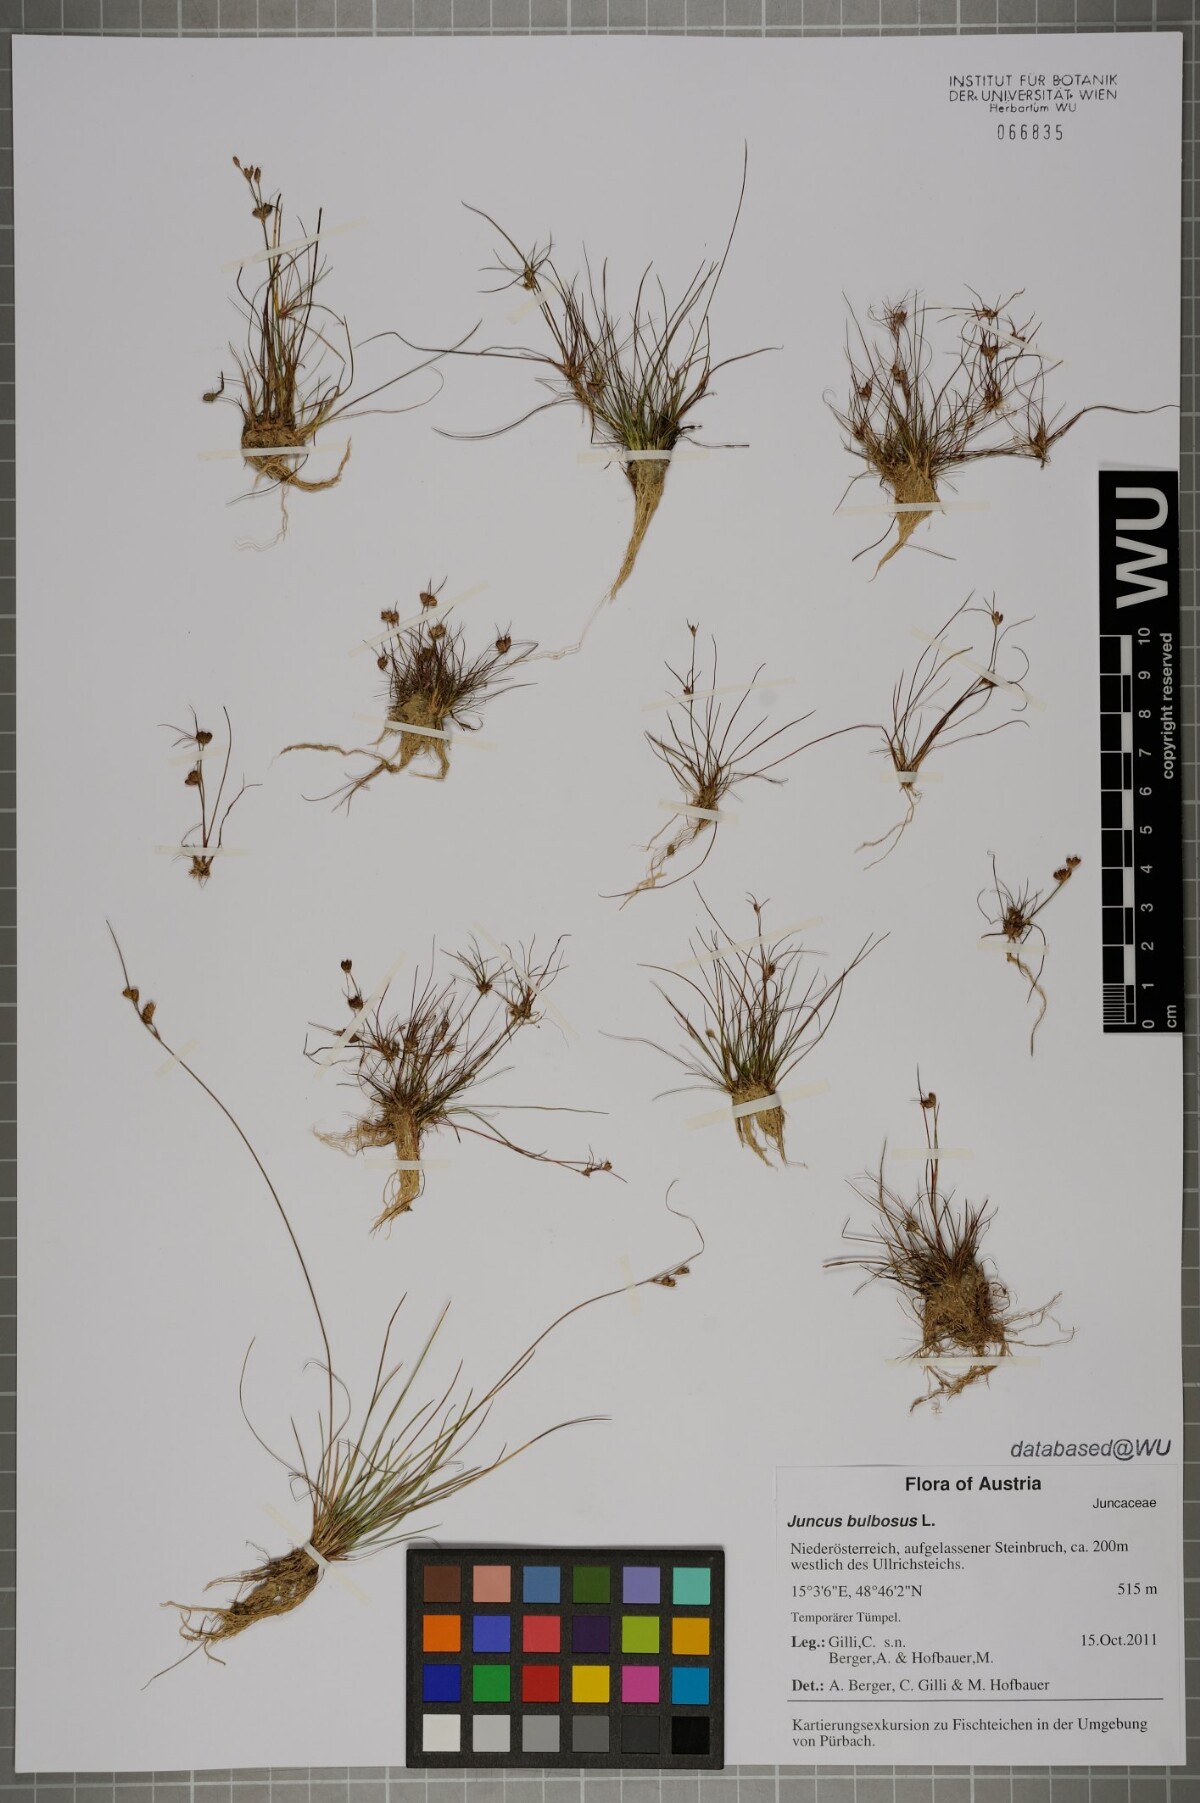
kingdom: Plantae
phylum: Tracheophyta
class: Liliopsida
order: Poales
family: Juncaceae
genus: Juncus
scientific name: Juncus bulbosus
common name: Bulbous rush
